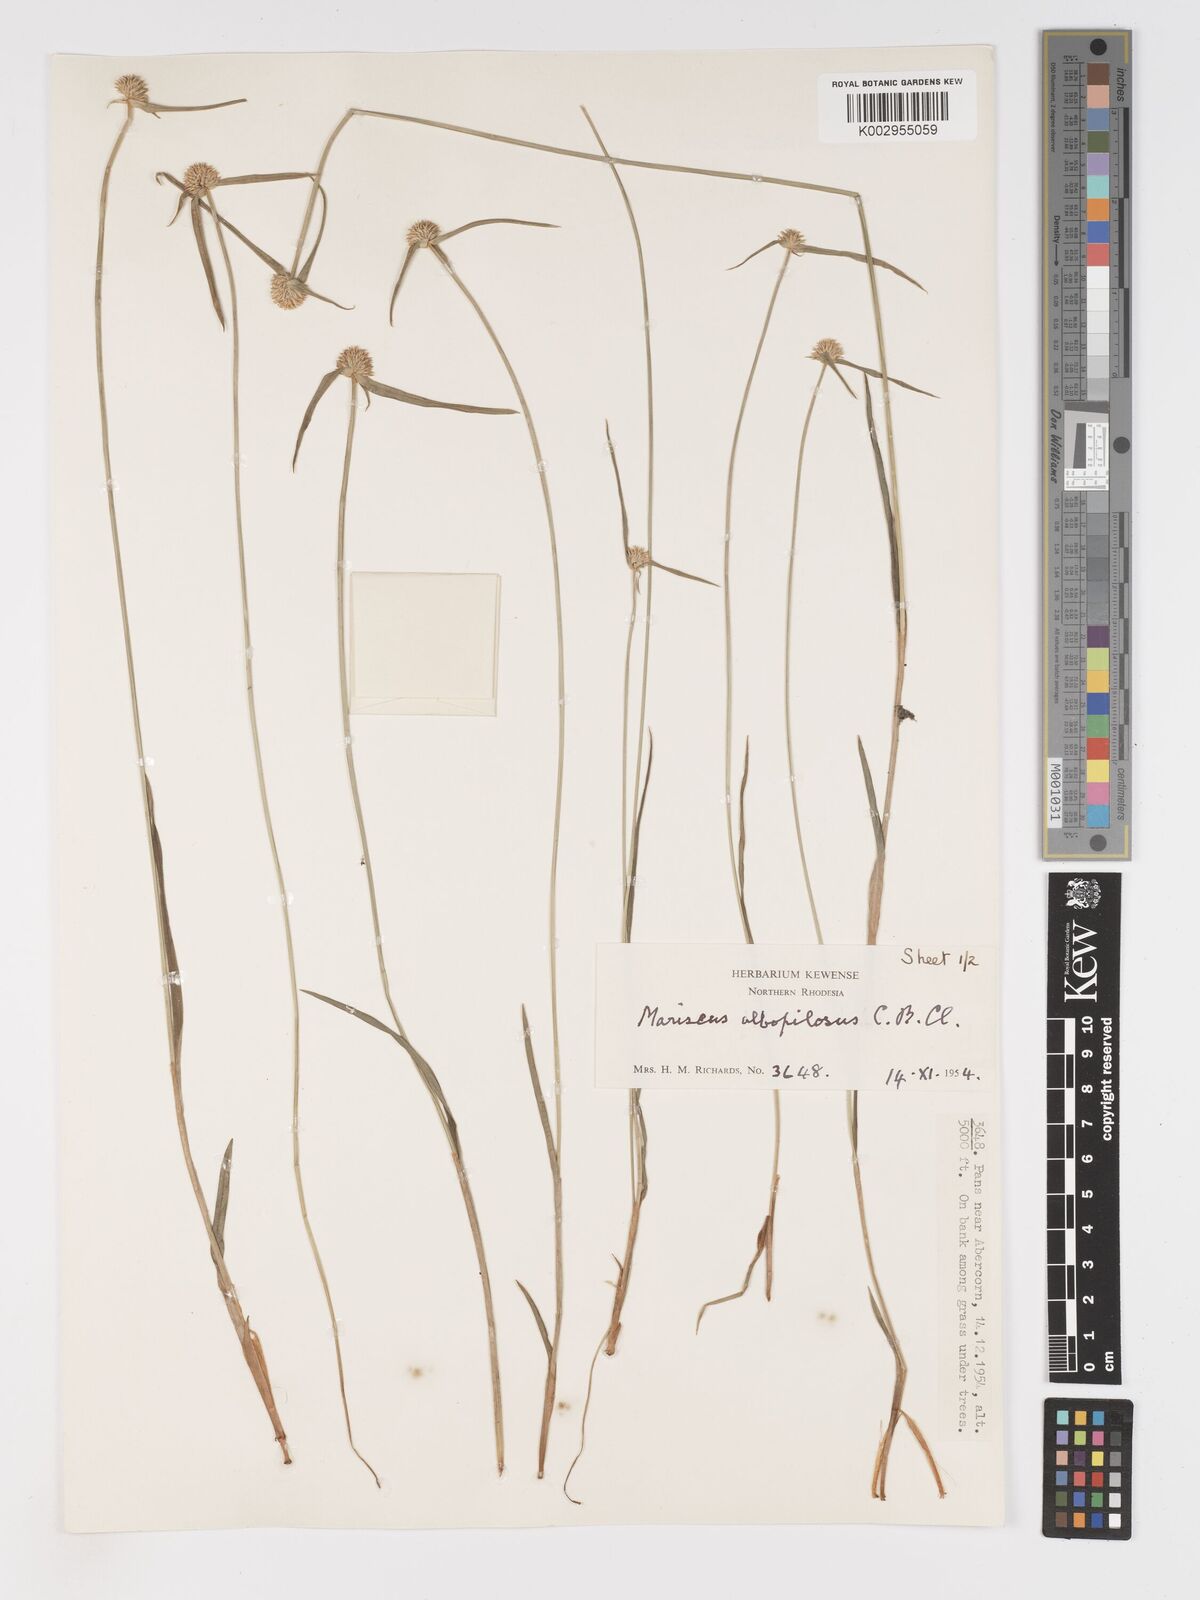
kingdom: Plantae
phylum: Tracheophyta
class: Liliopsida
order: Poales
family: Cyperaceae
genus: Cyperus
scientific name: Cyperus albopilosus
